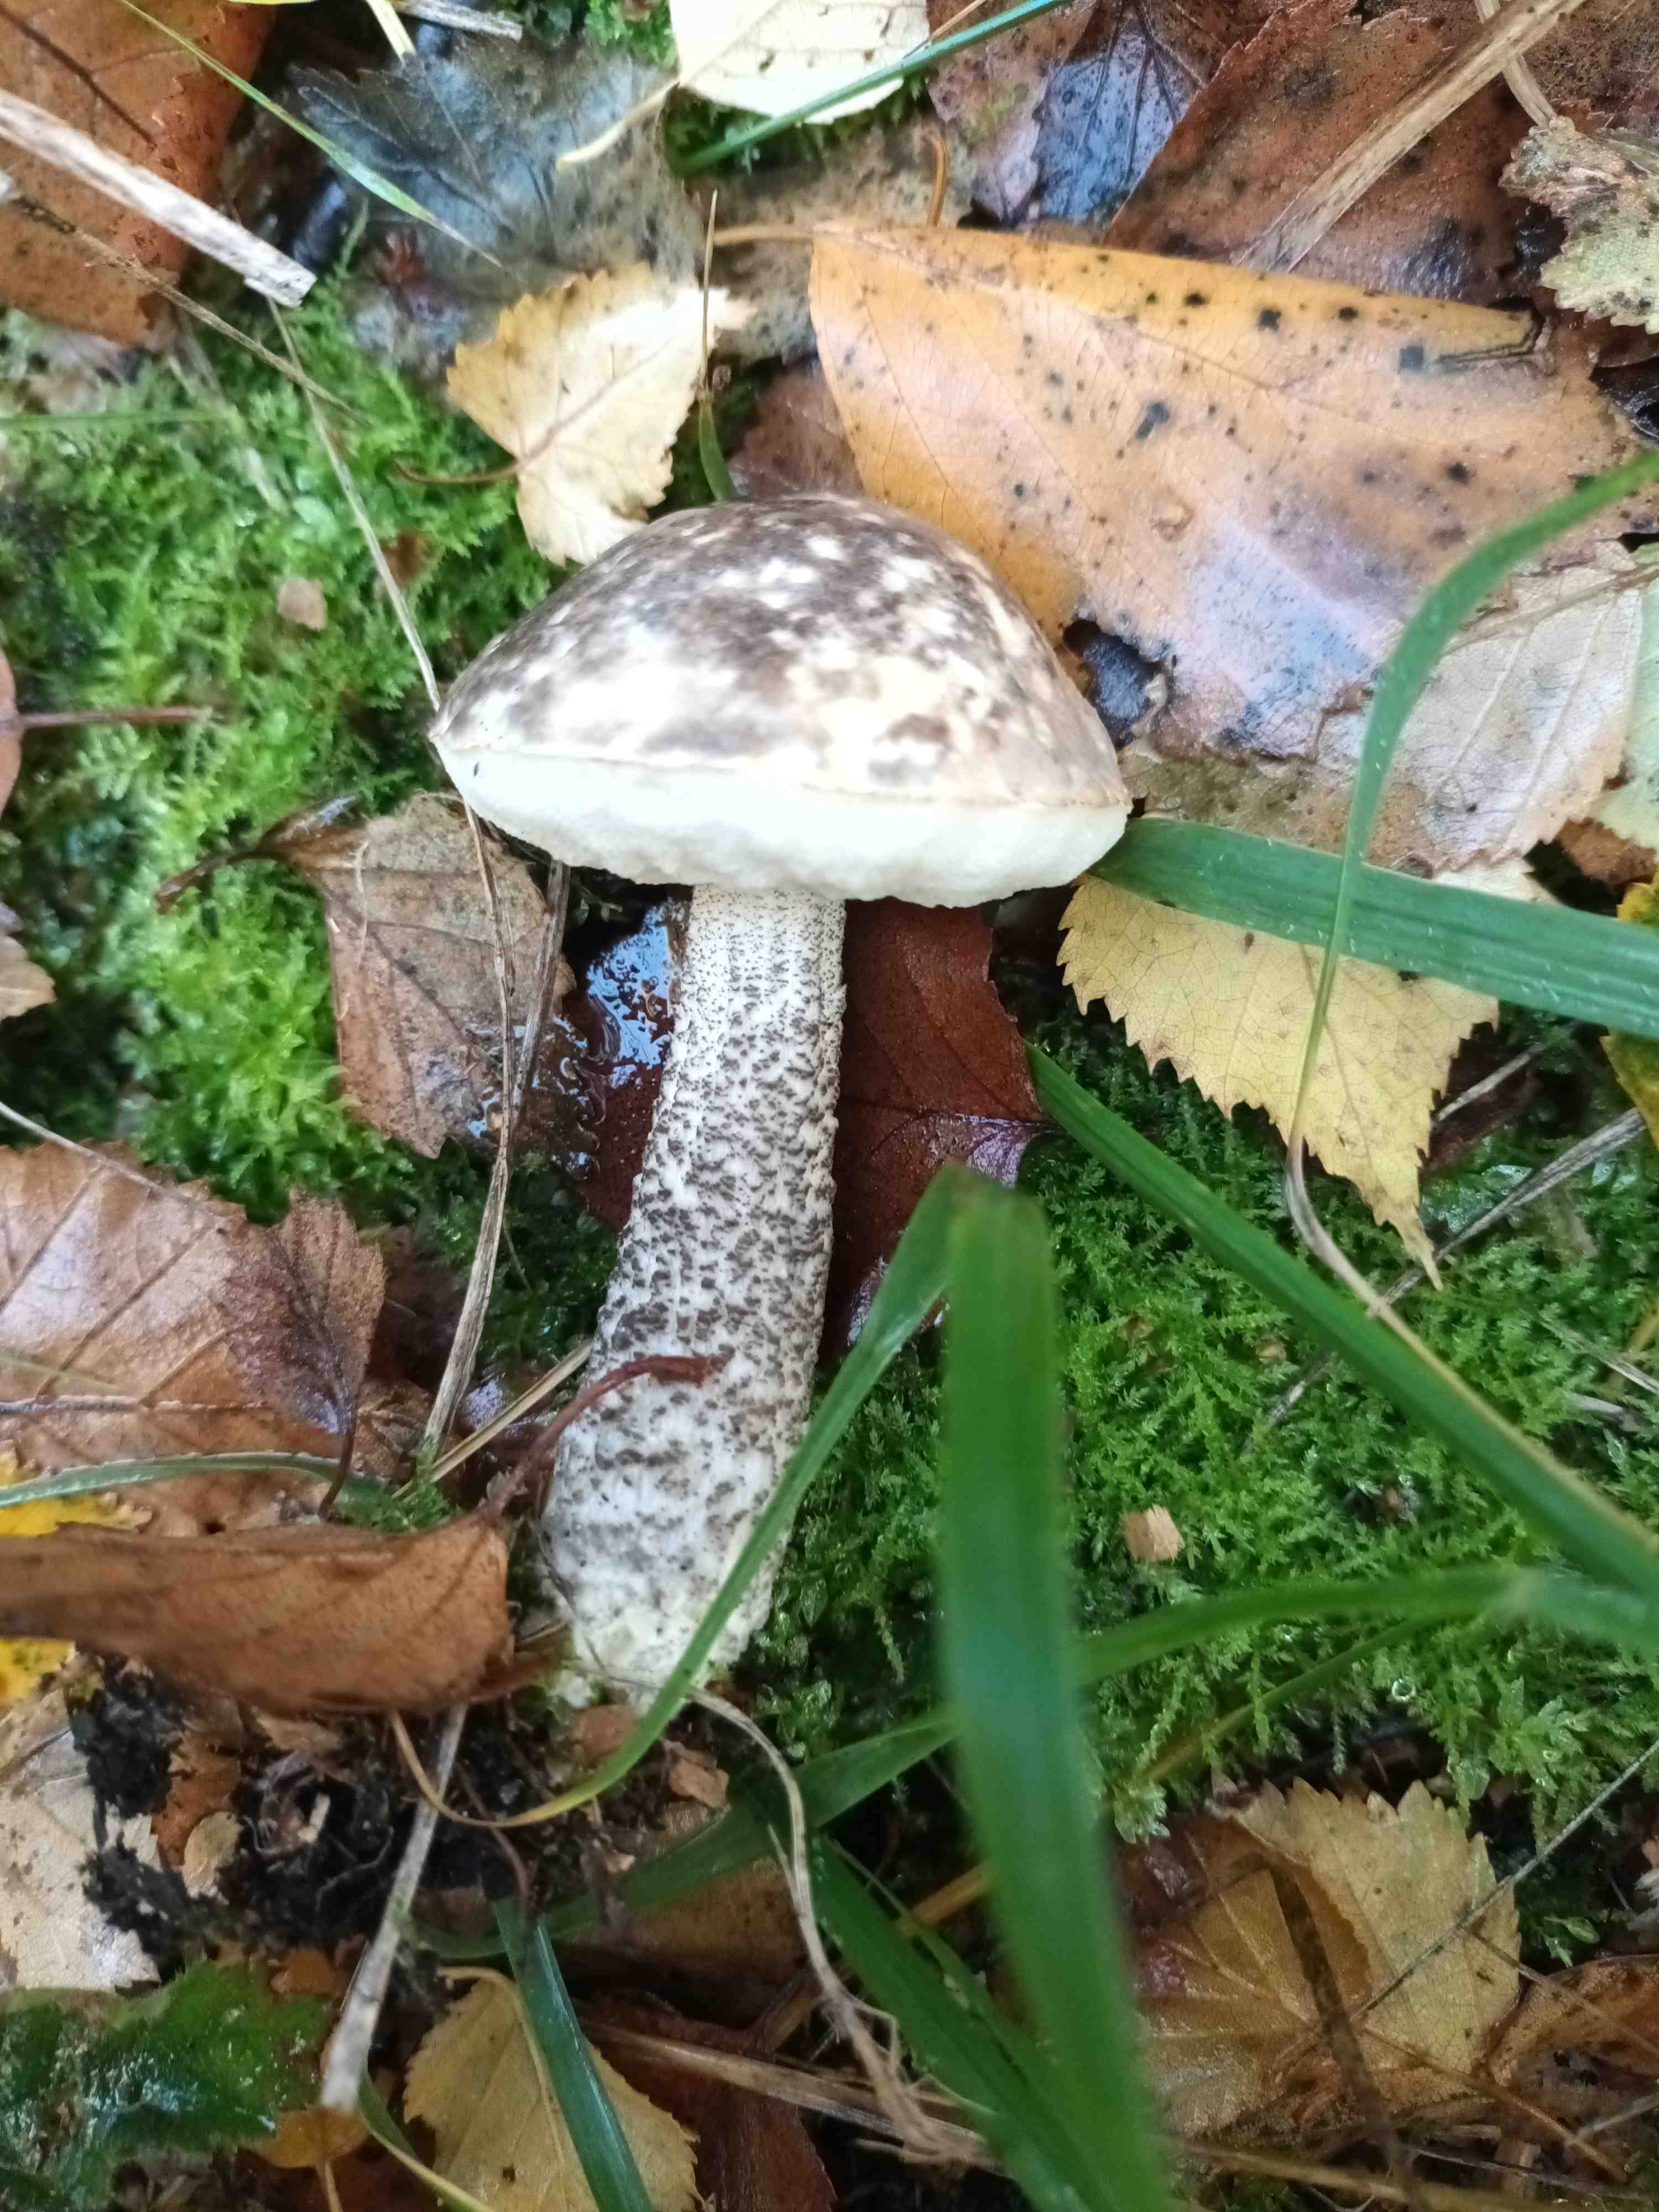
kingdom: Fungi
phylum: Basidiomycota
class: Agaricomycetes
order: Boletales
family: Boletaceae
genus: Leccinum
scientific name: Leccinum variicolor
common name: flammet skælrørhat
